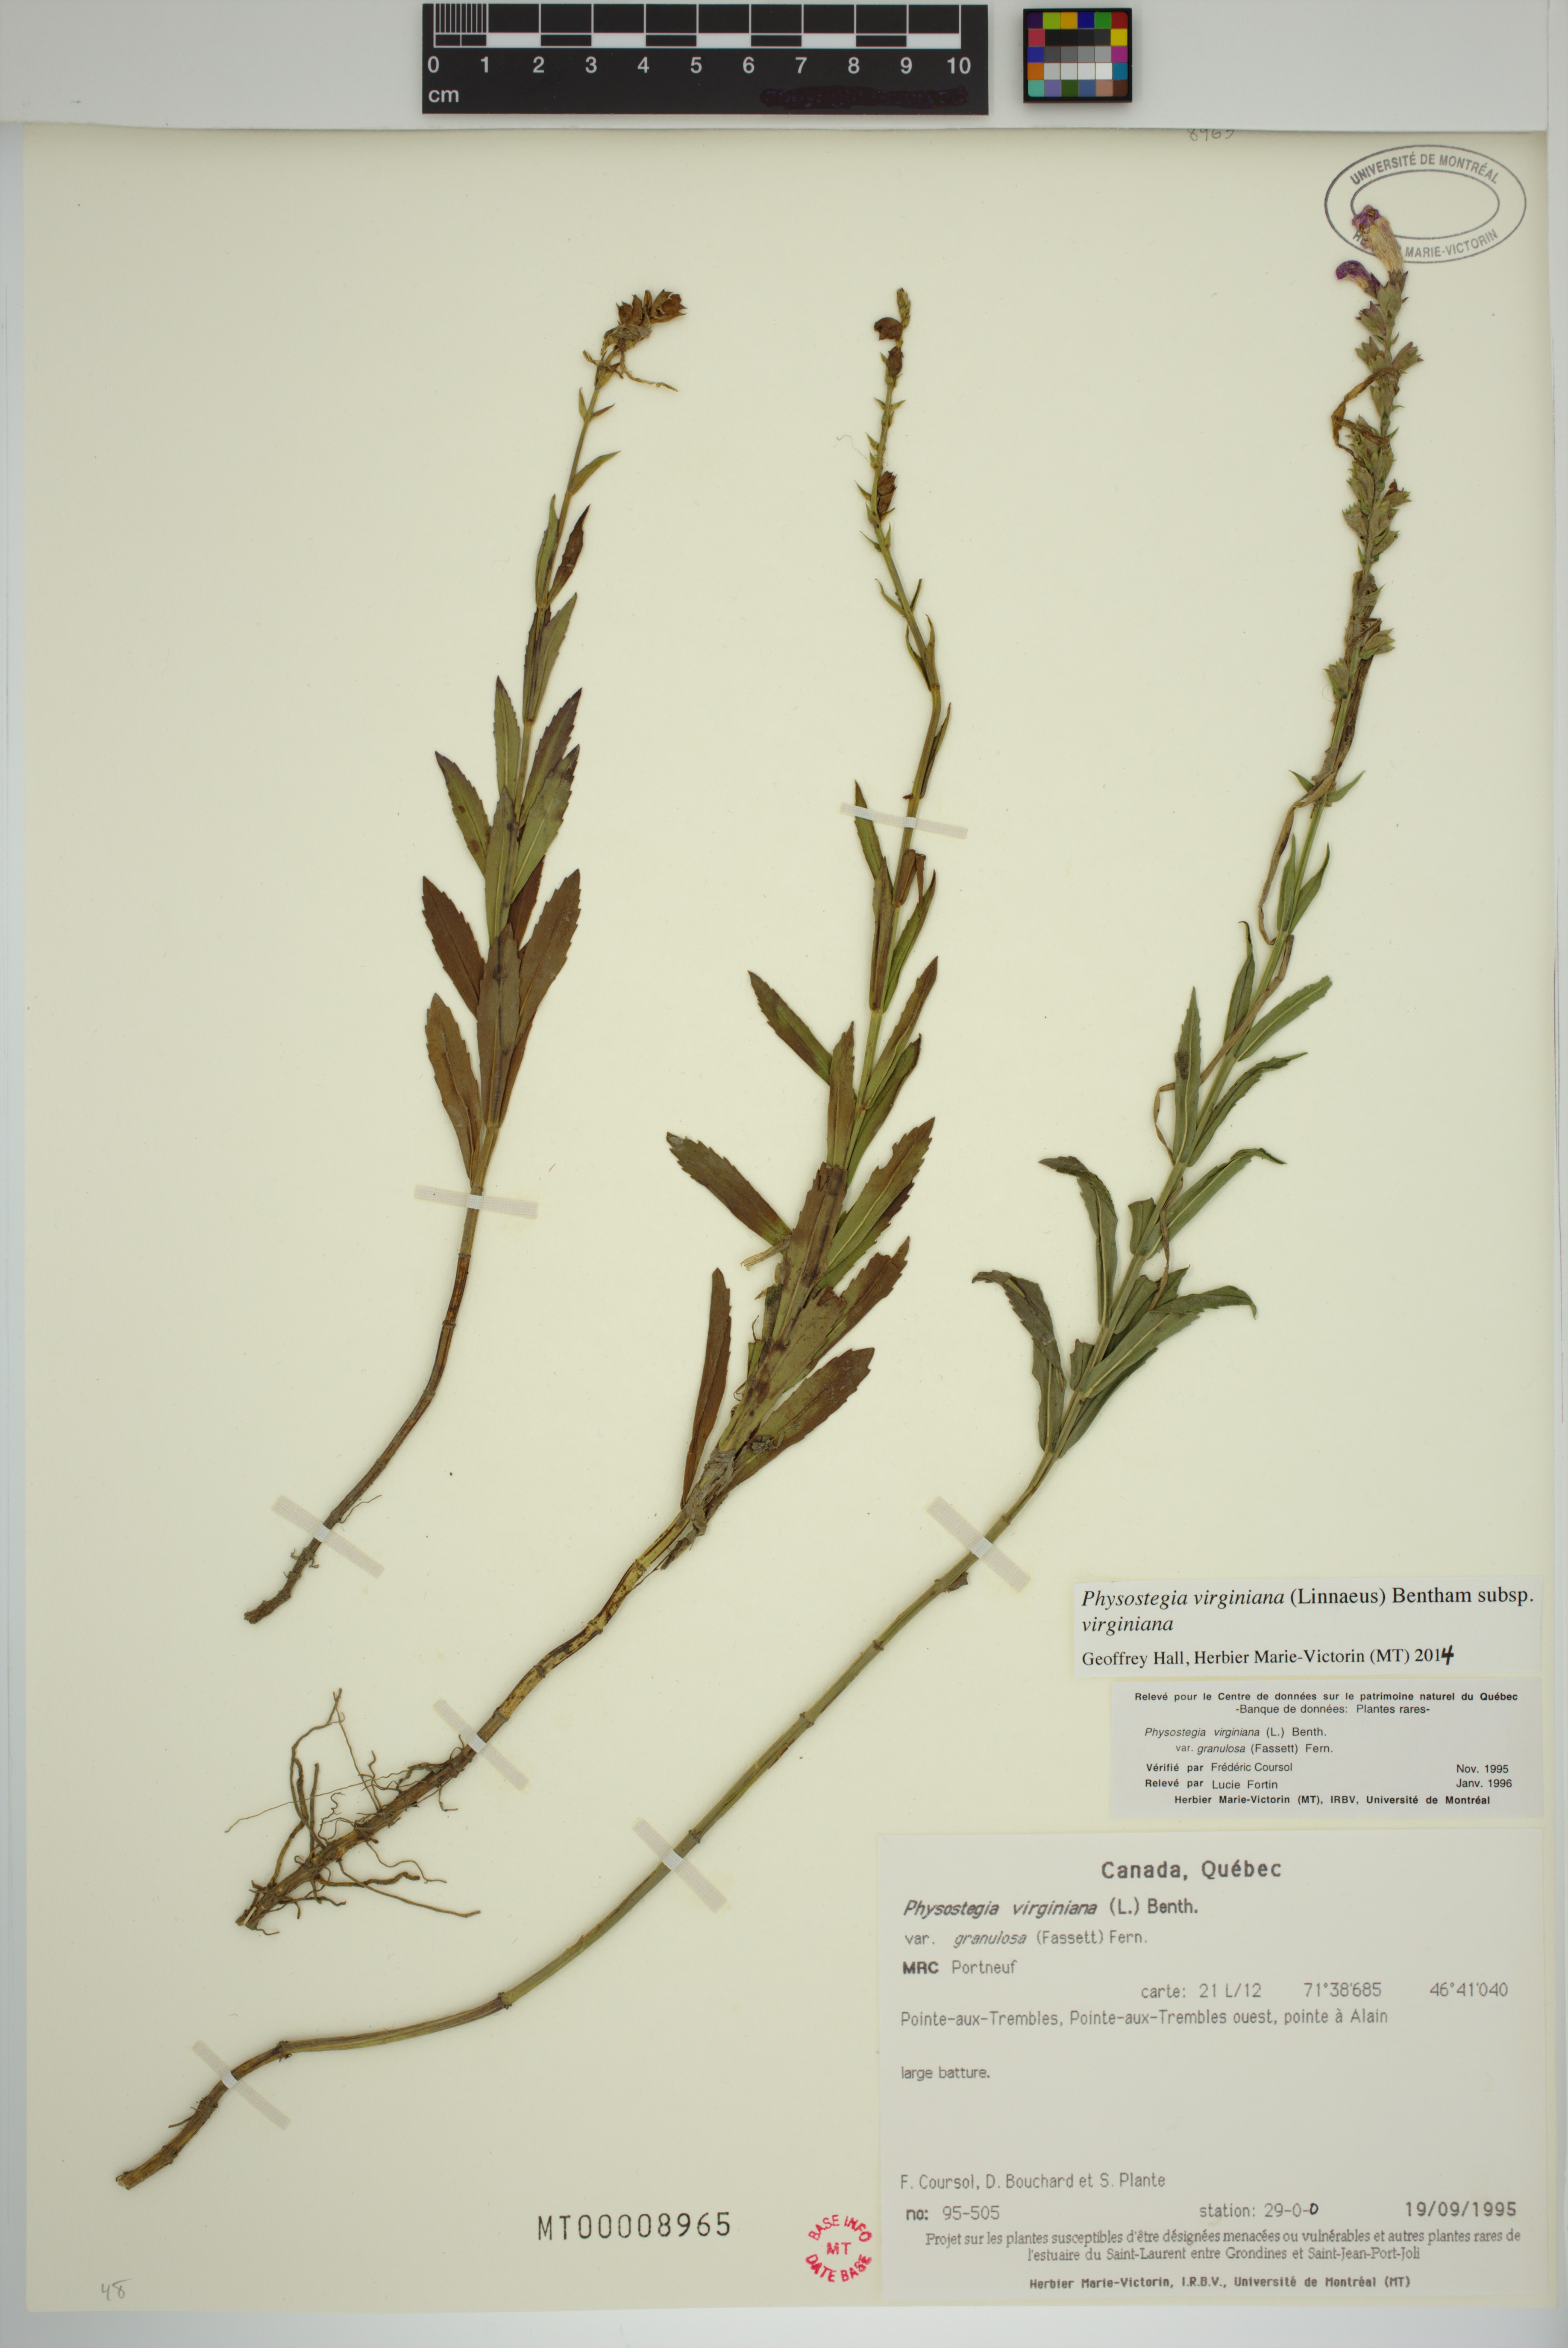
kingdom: Plantae
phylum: Tracheophyta
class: Magnoliopsida
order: Lamiales
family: Lamiaceae
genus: Physostegia
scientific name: Physostegia virginiana
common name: Obedient-plant
